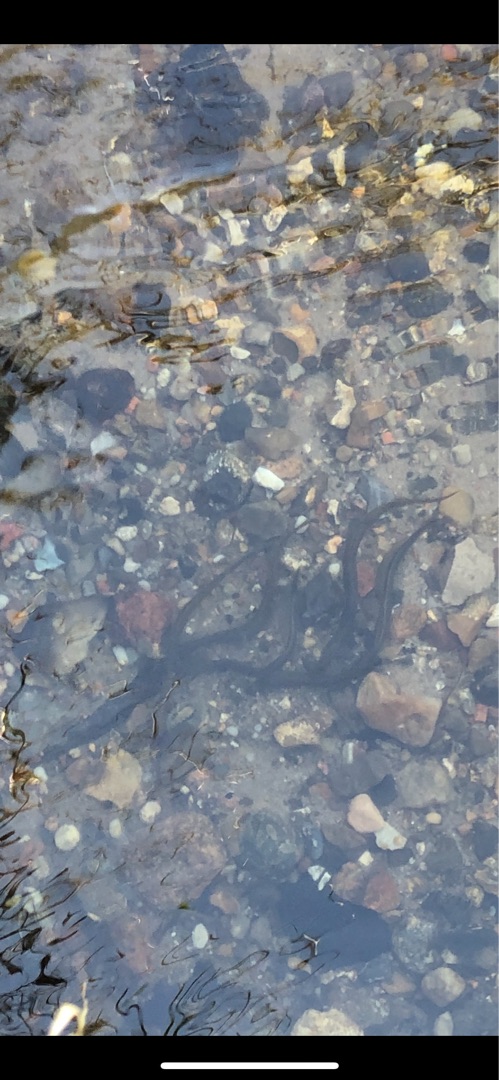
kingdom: Animalia
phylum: Chordata
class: Petromyzonti
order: Petromyzontiformes
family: Petromyzontidae
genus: Lampetra
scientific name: Lampetra planeri
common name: Bæklampret
